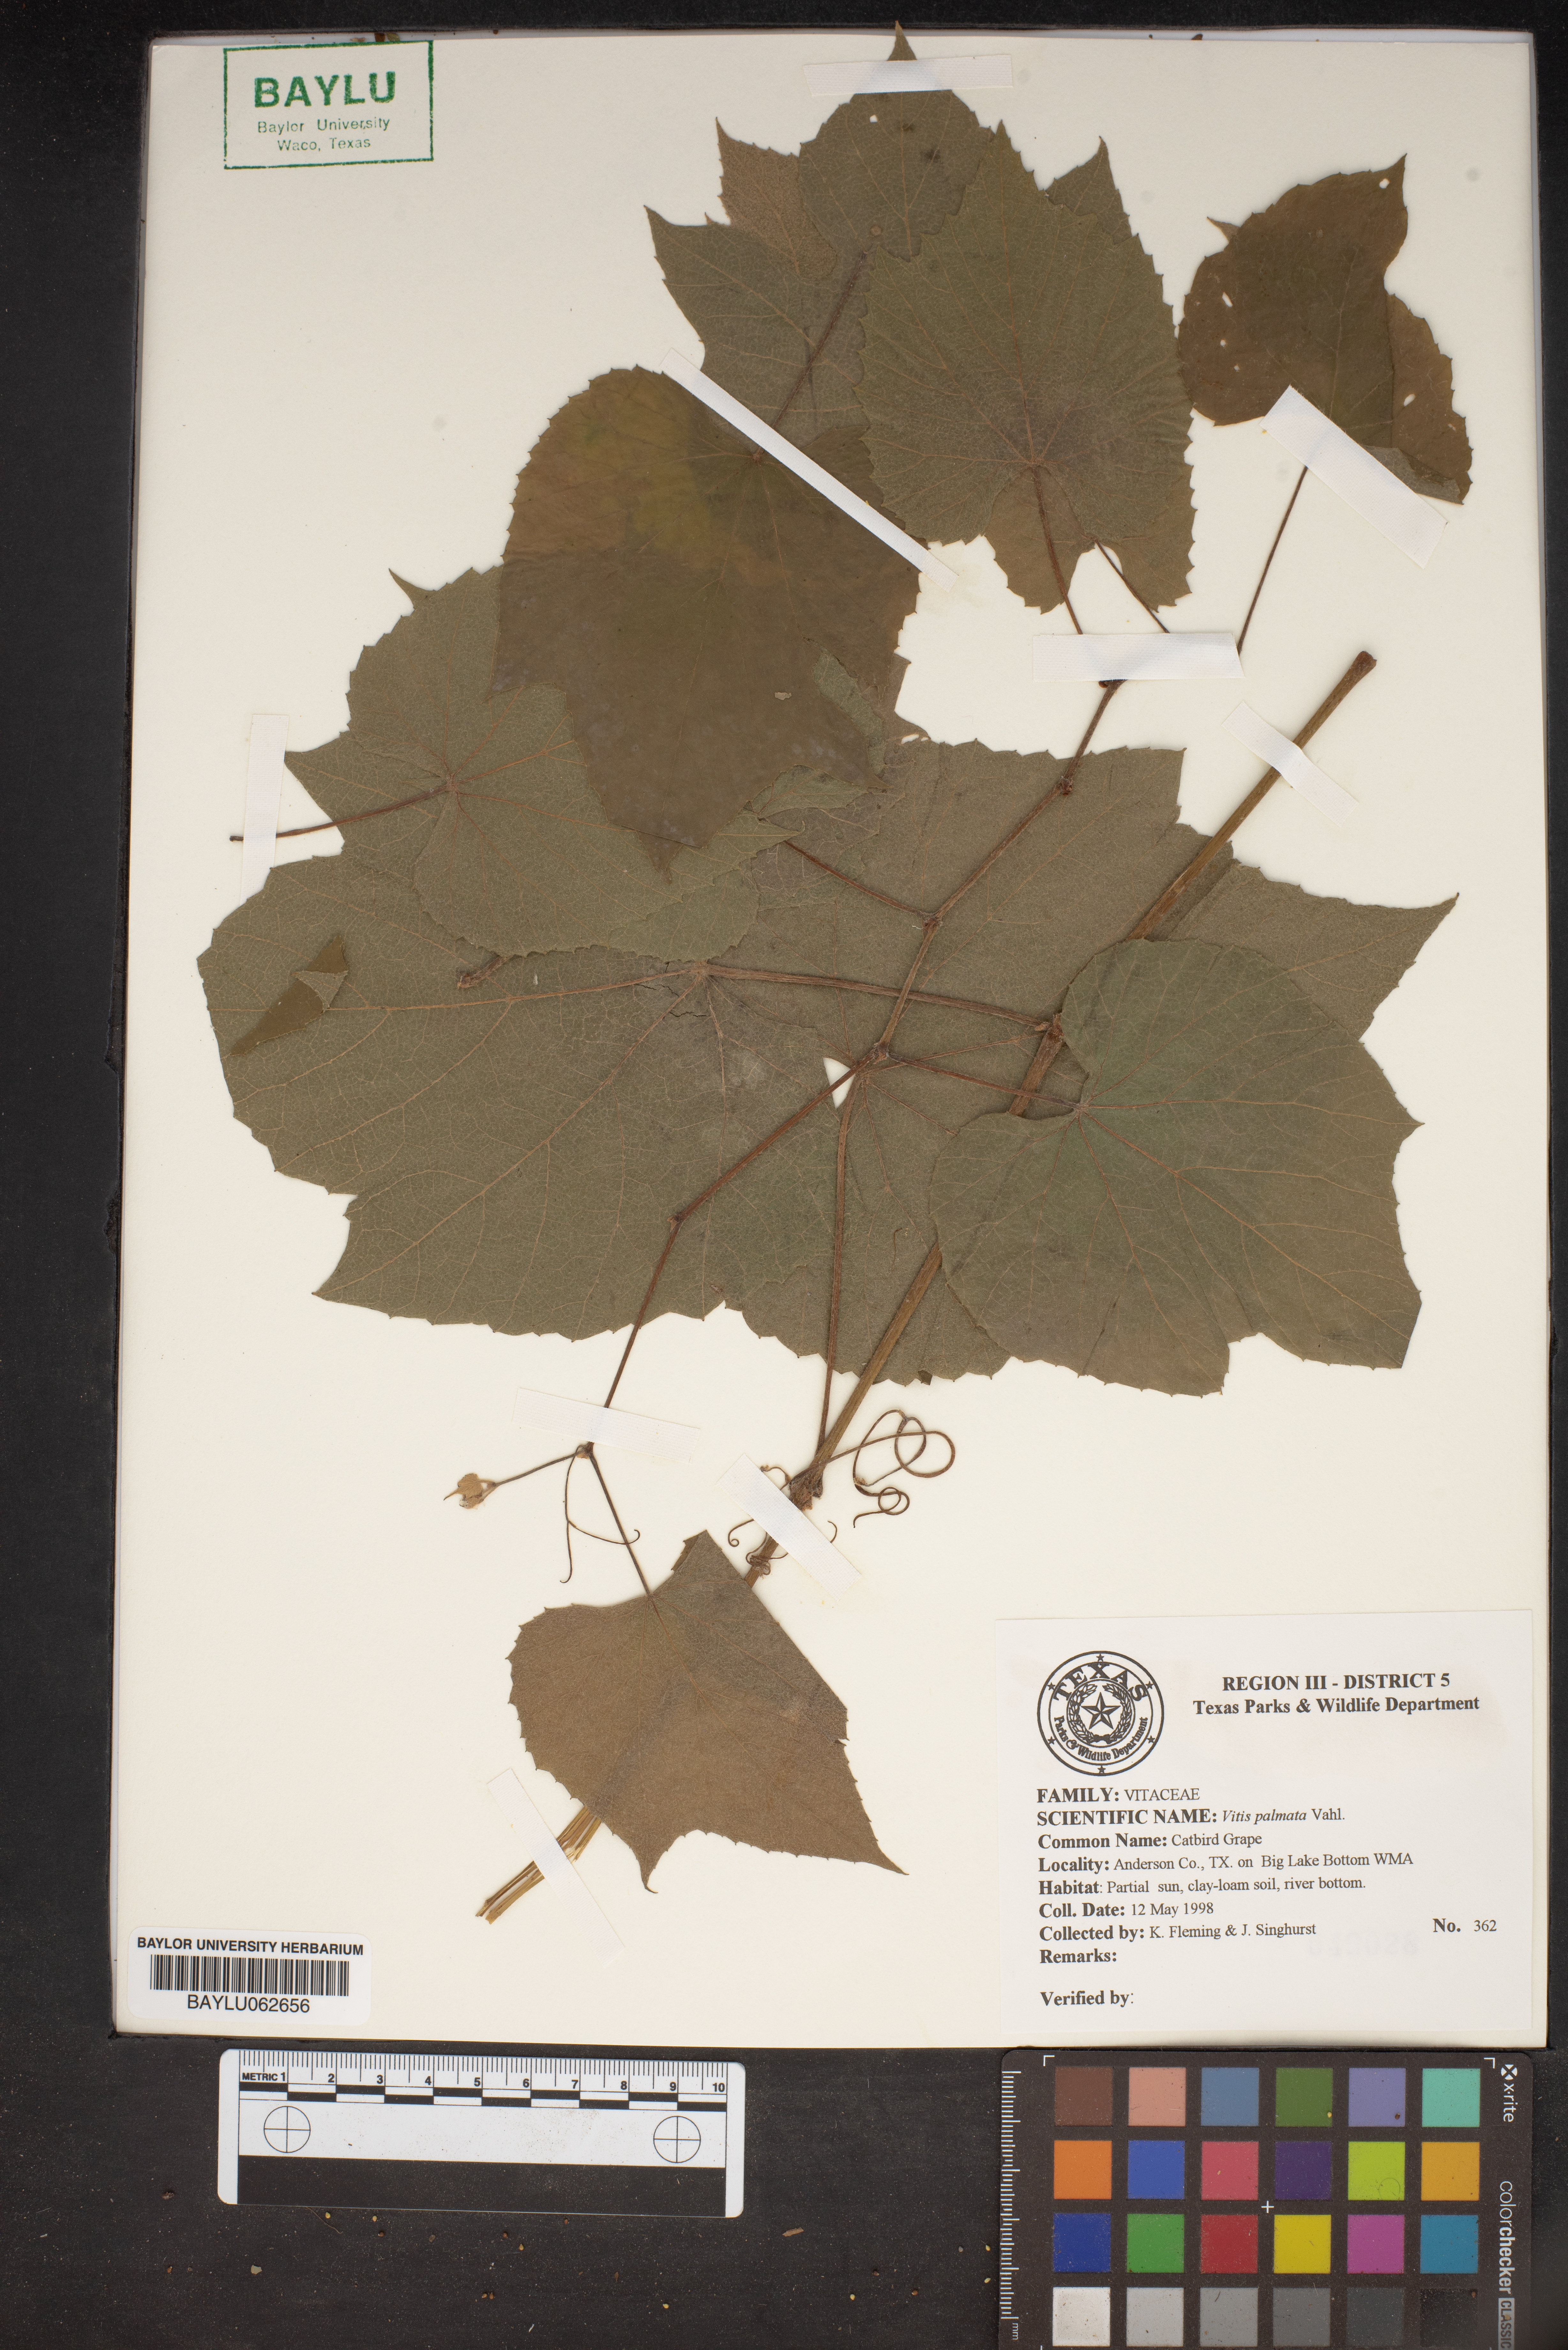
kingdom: Plantae
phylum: Tracheophyta
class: Magnoliopsida
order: Vitales
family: Vitaceae
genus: Vitis
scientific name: Vitis palmata
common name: Catbird grape
